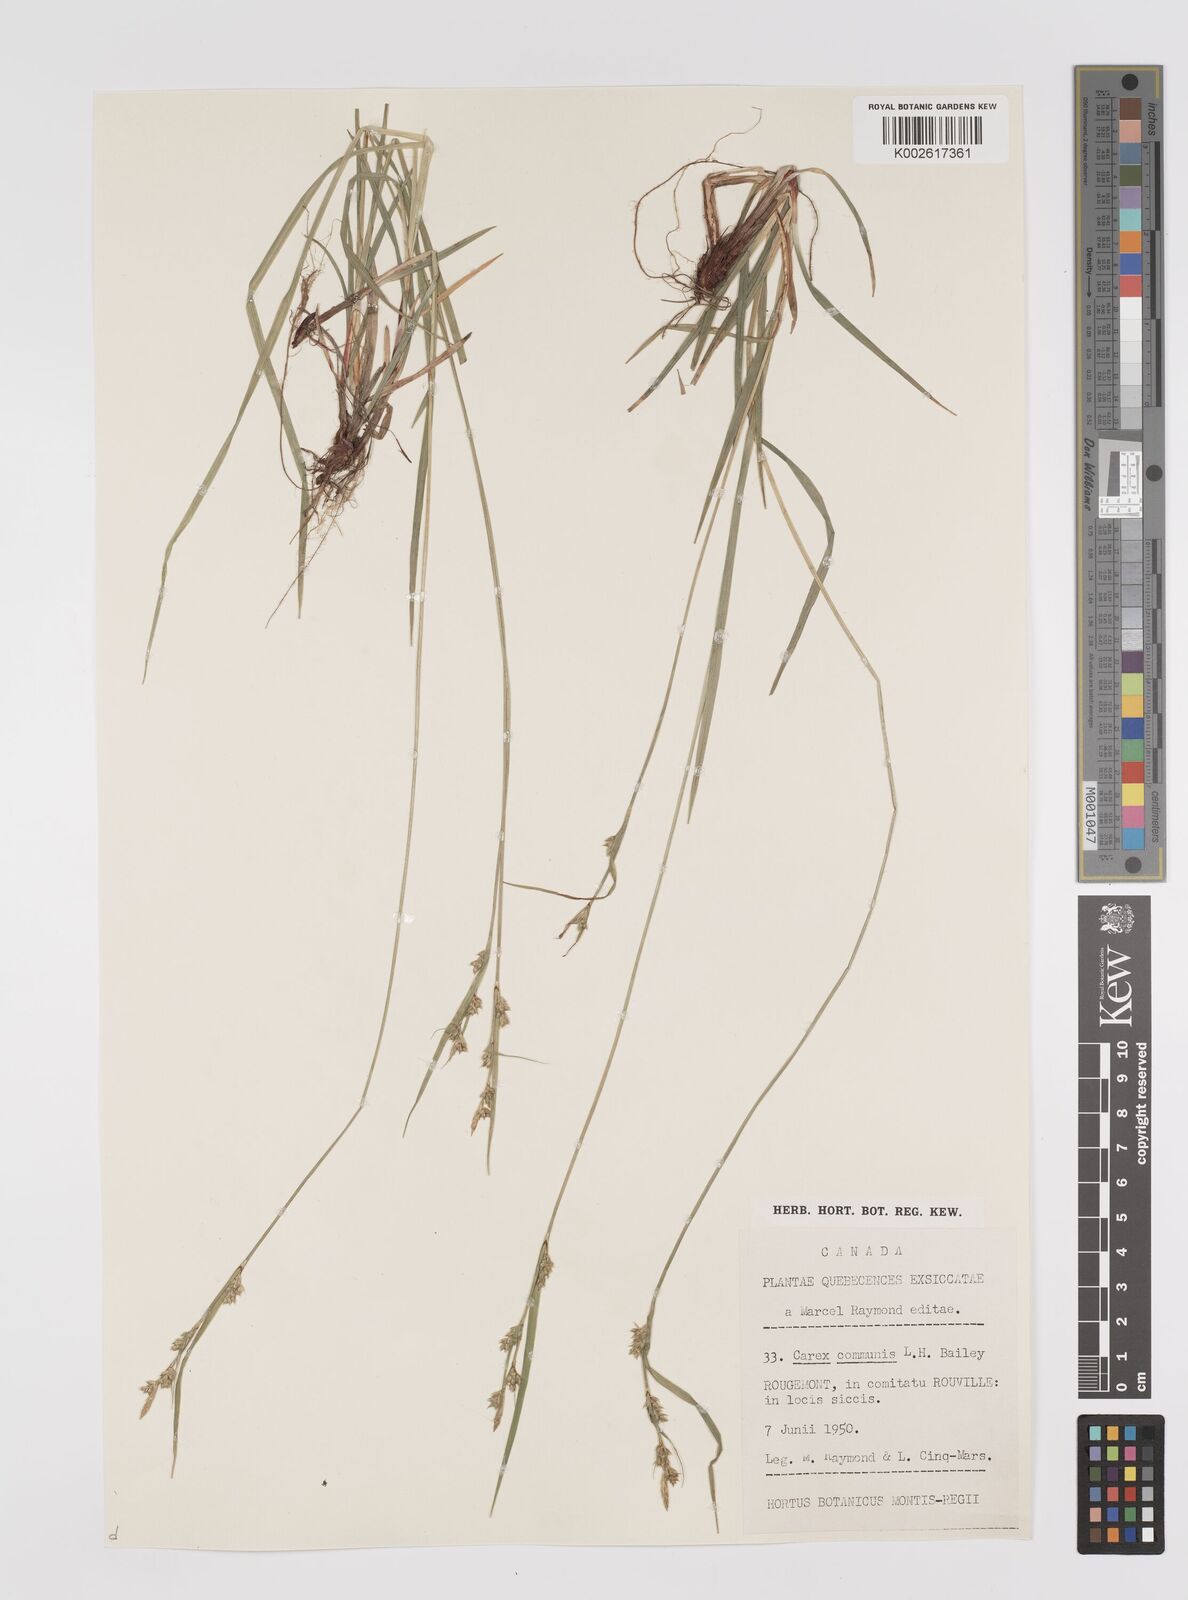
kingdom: Plantae
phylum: Tracheophyta
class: Liliopsida
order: Poales
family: Cyperaceae
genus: Carex
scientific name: Carex communis
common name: Colonial oak sedge
